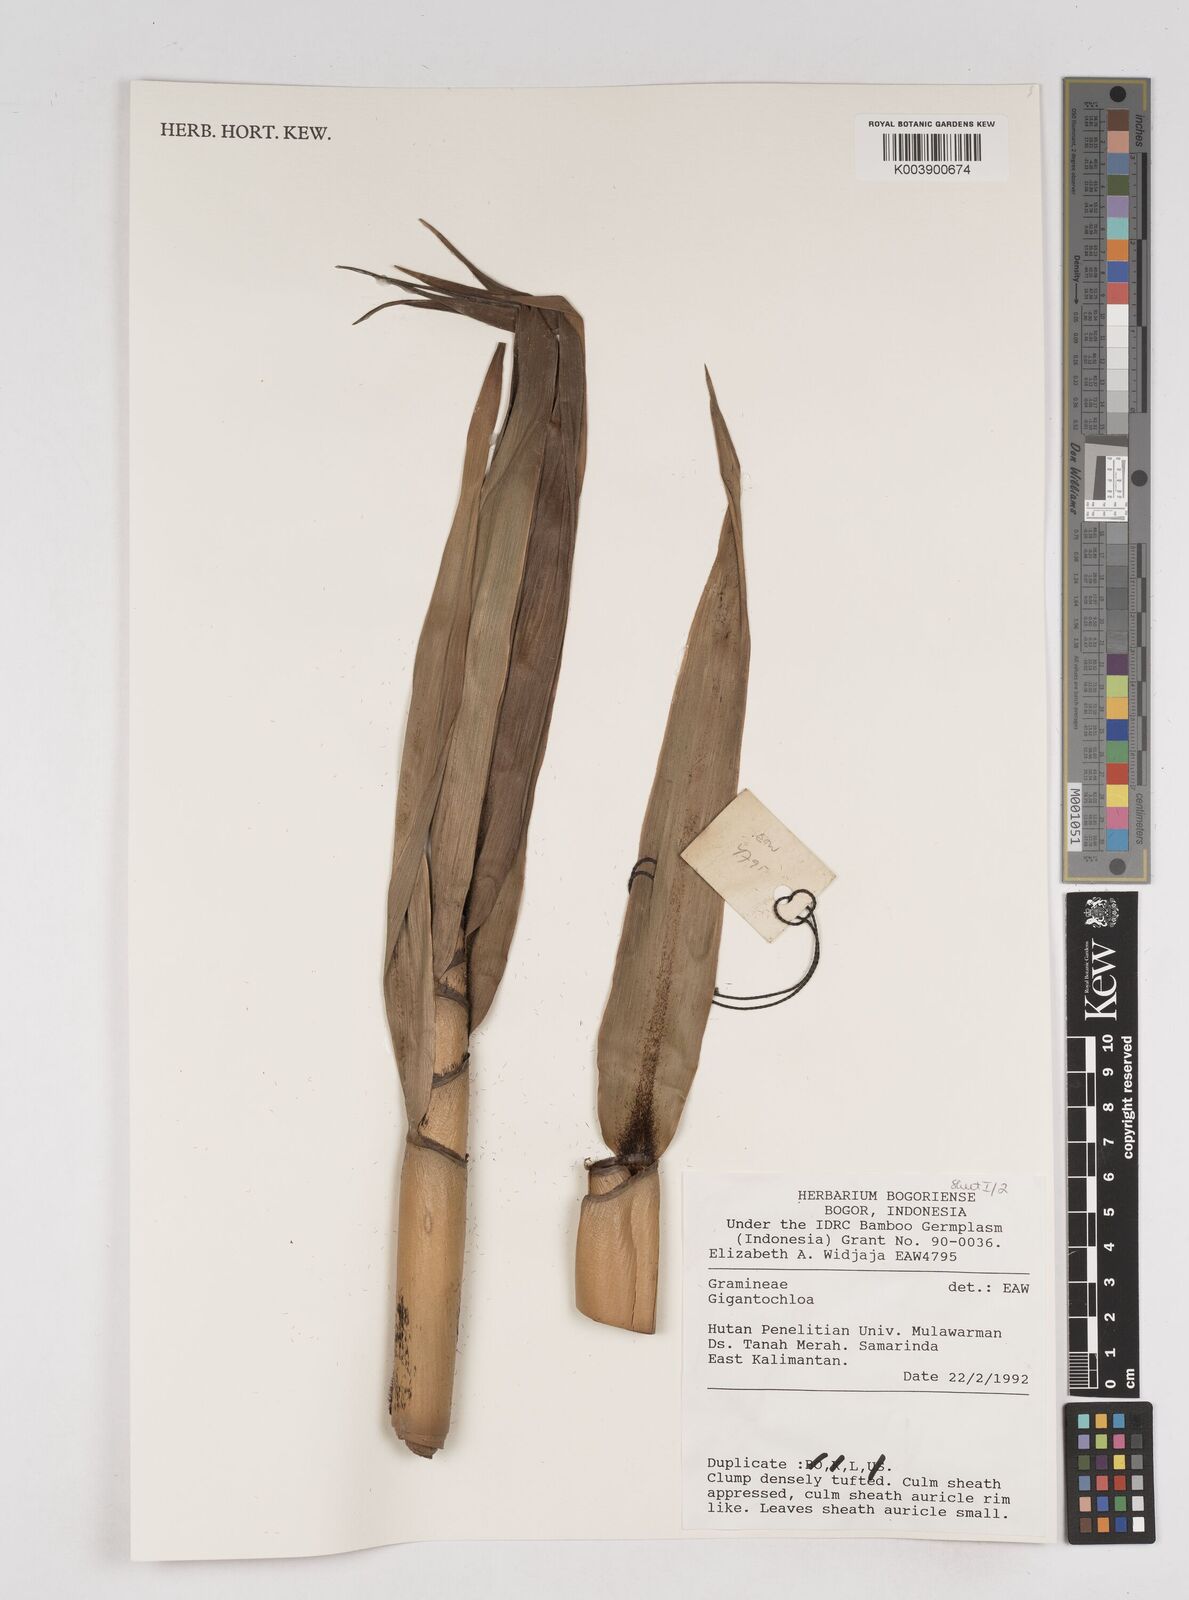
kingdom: Plantae
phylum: Tracheophyta
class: Liliopsida
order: Poales
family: Poaceae
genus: Gigantochloa
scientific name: Gigantochloa
